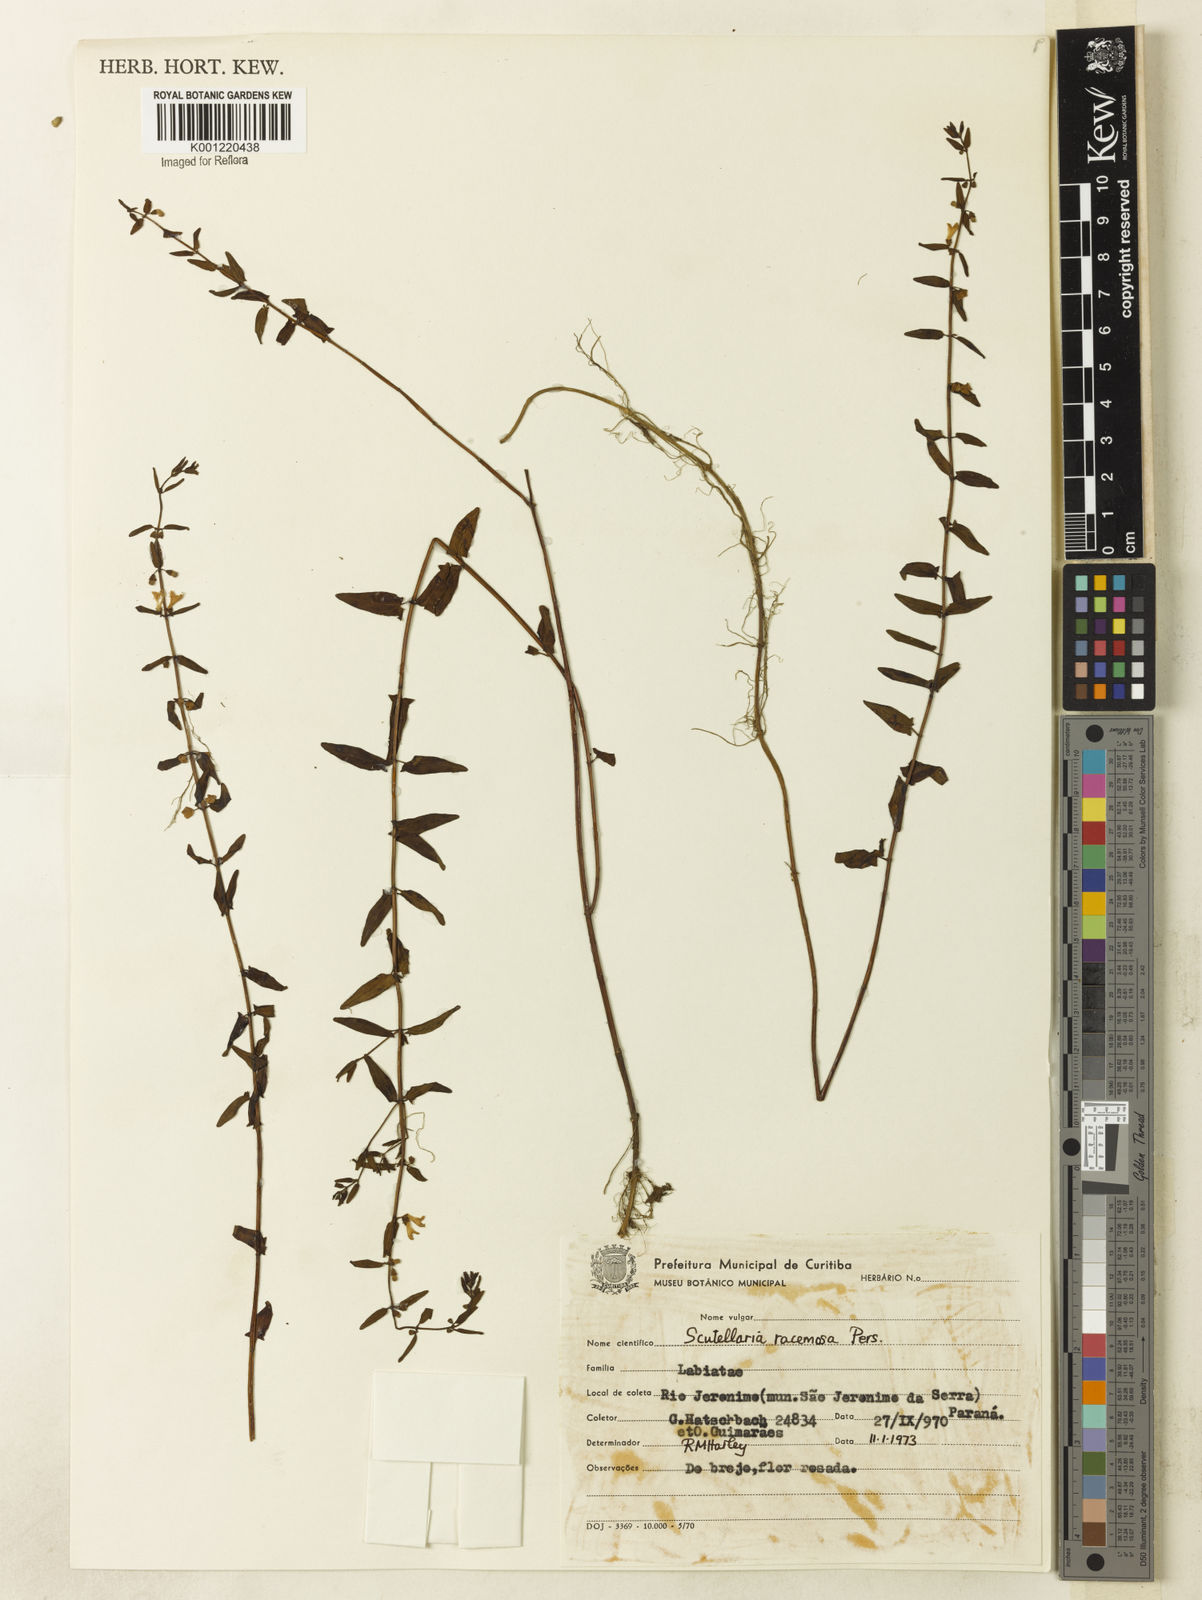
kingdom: Plantae
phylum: Tracheophyta
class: Magnoliopsida
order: Lamiales
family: Lamiaceae
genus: Scutellaria
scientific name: Scutellaria racemosa
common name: South american skullcap
